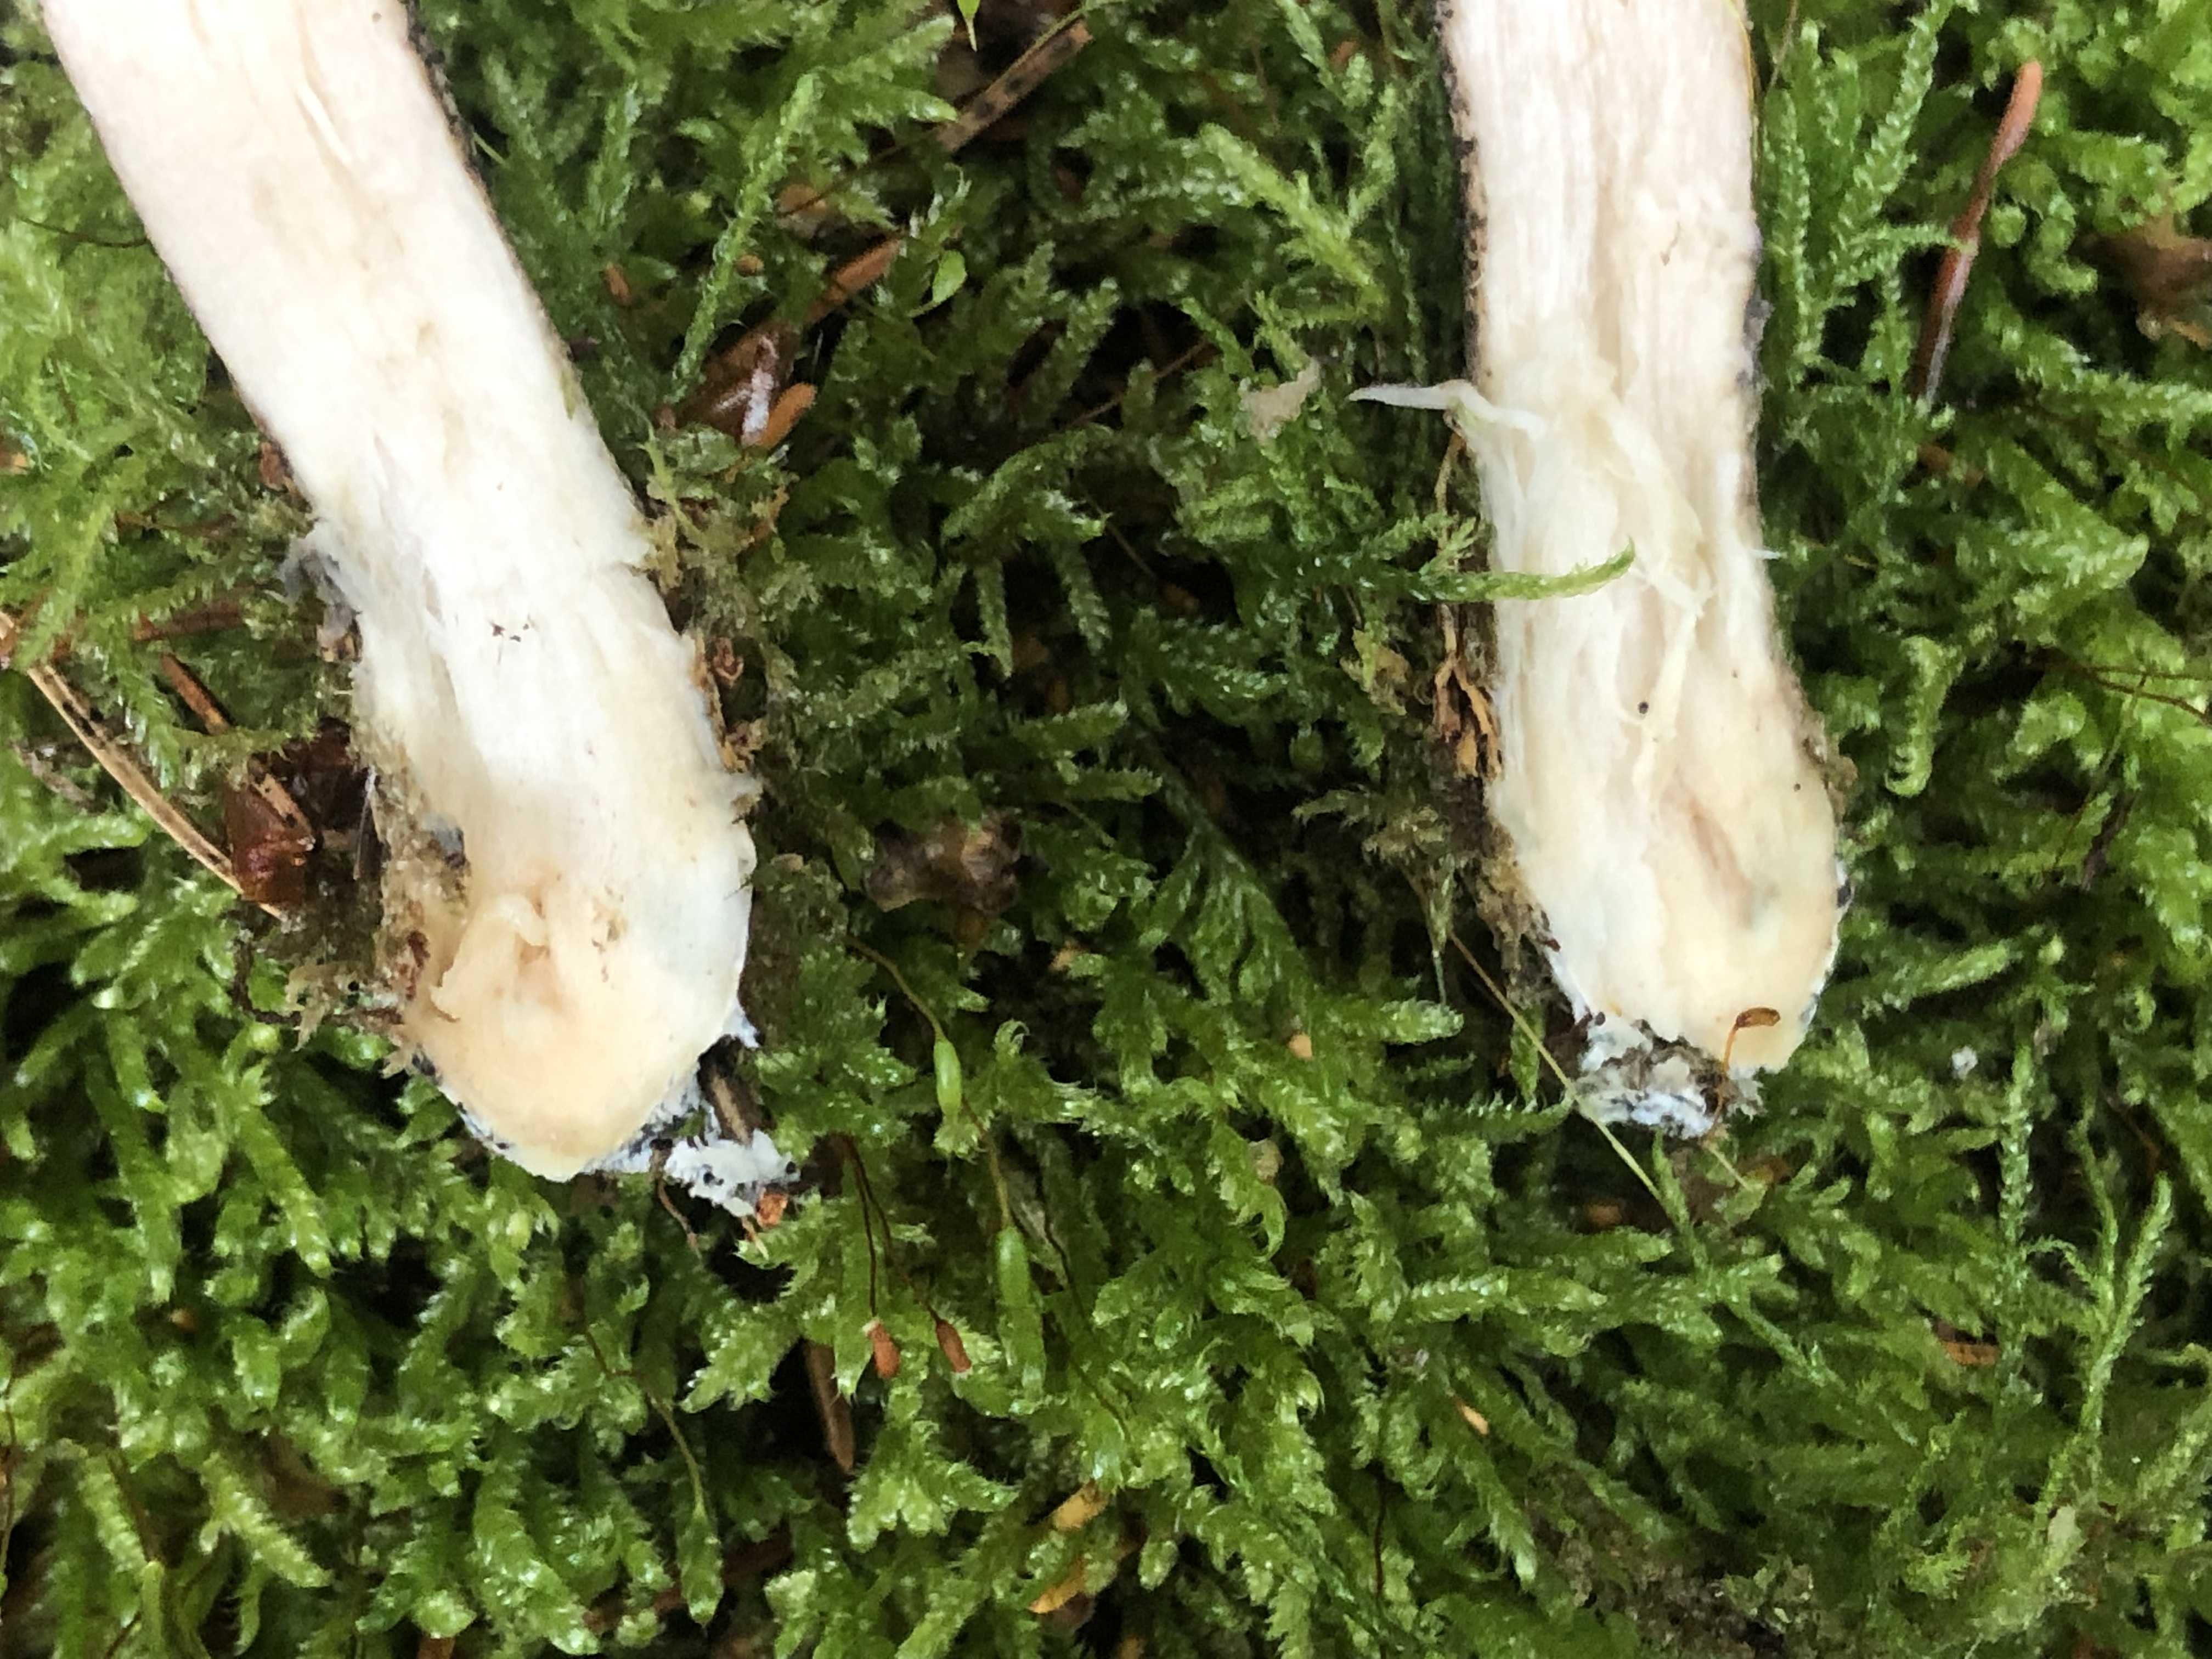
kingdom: Fungi
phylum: Basidiomycota
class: Agaricomycetes
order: Boletales
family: Boletaceae
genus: Leccinum
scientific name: Leccinum variicolor
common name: flammet skælrørhat
